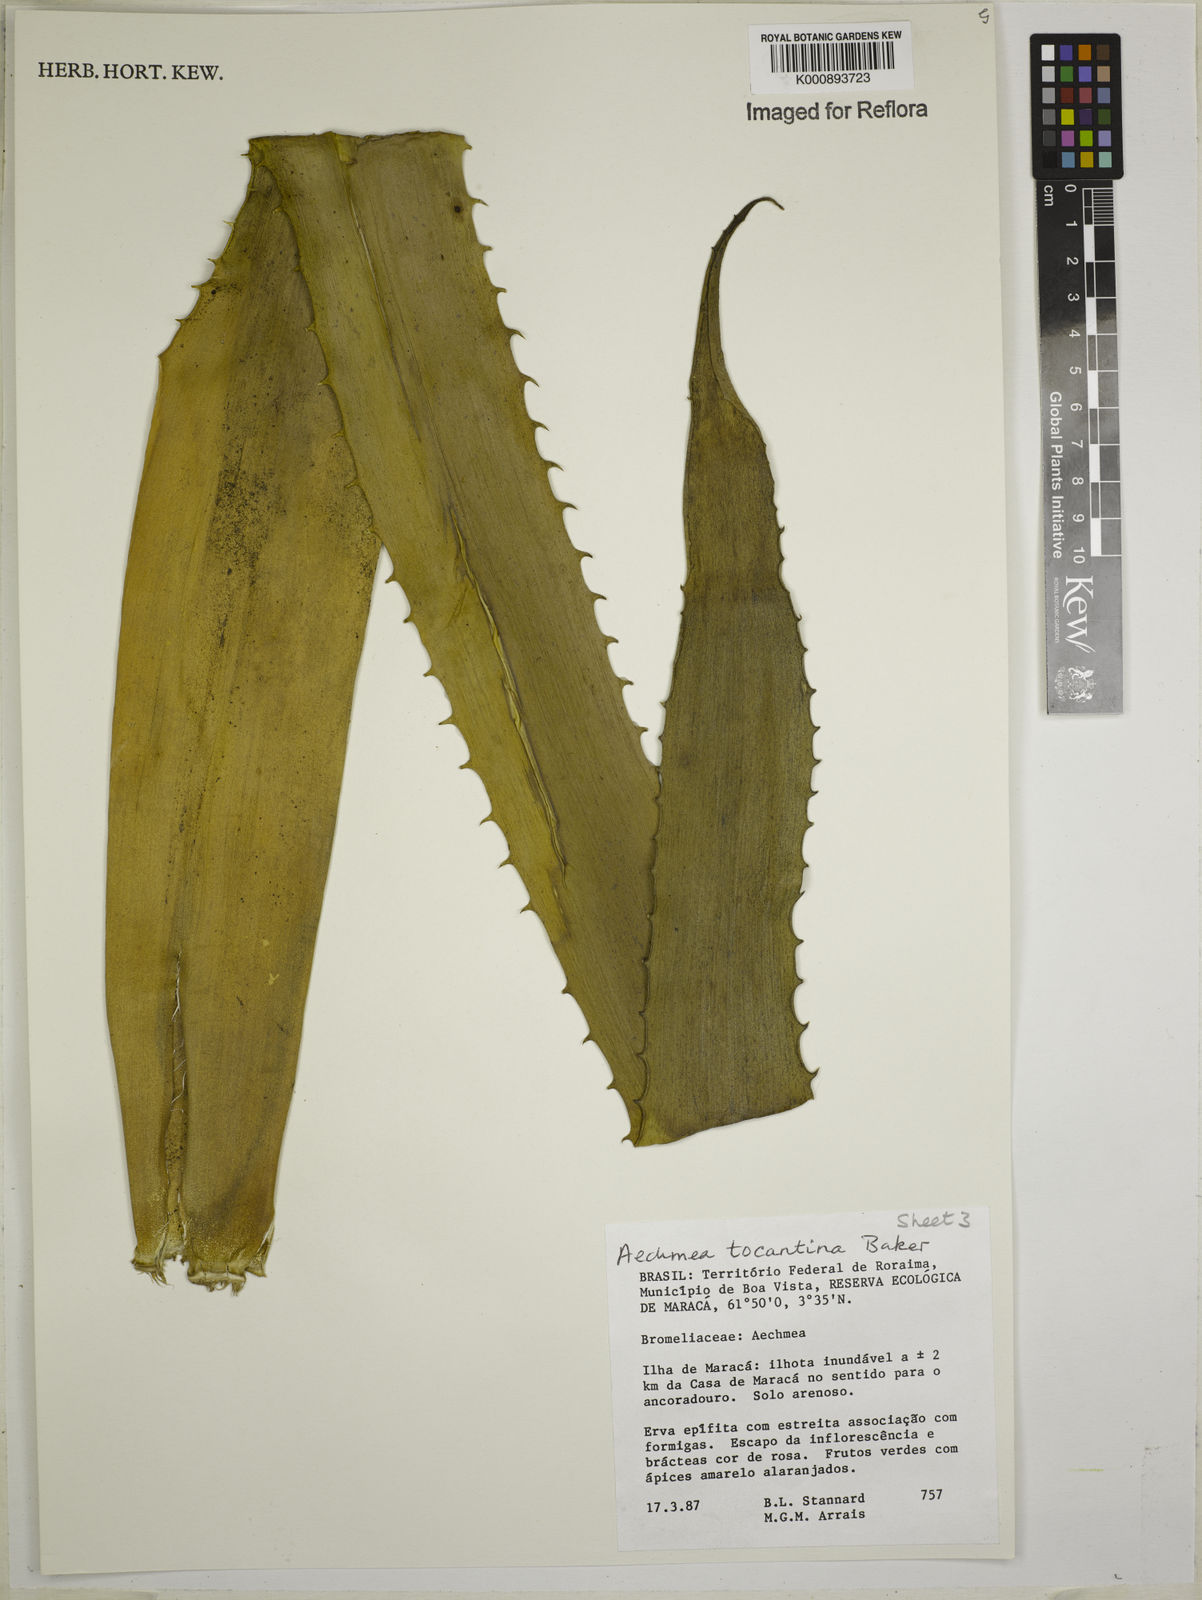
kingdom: Plantae
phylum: Tracheophyta
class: Liliopsida
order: Poales
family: Bromeliaceae
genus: Aechmea
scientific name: Aechmea tocantina
